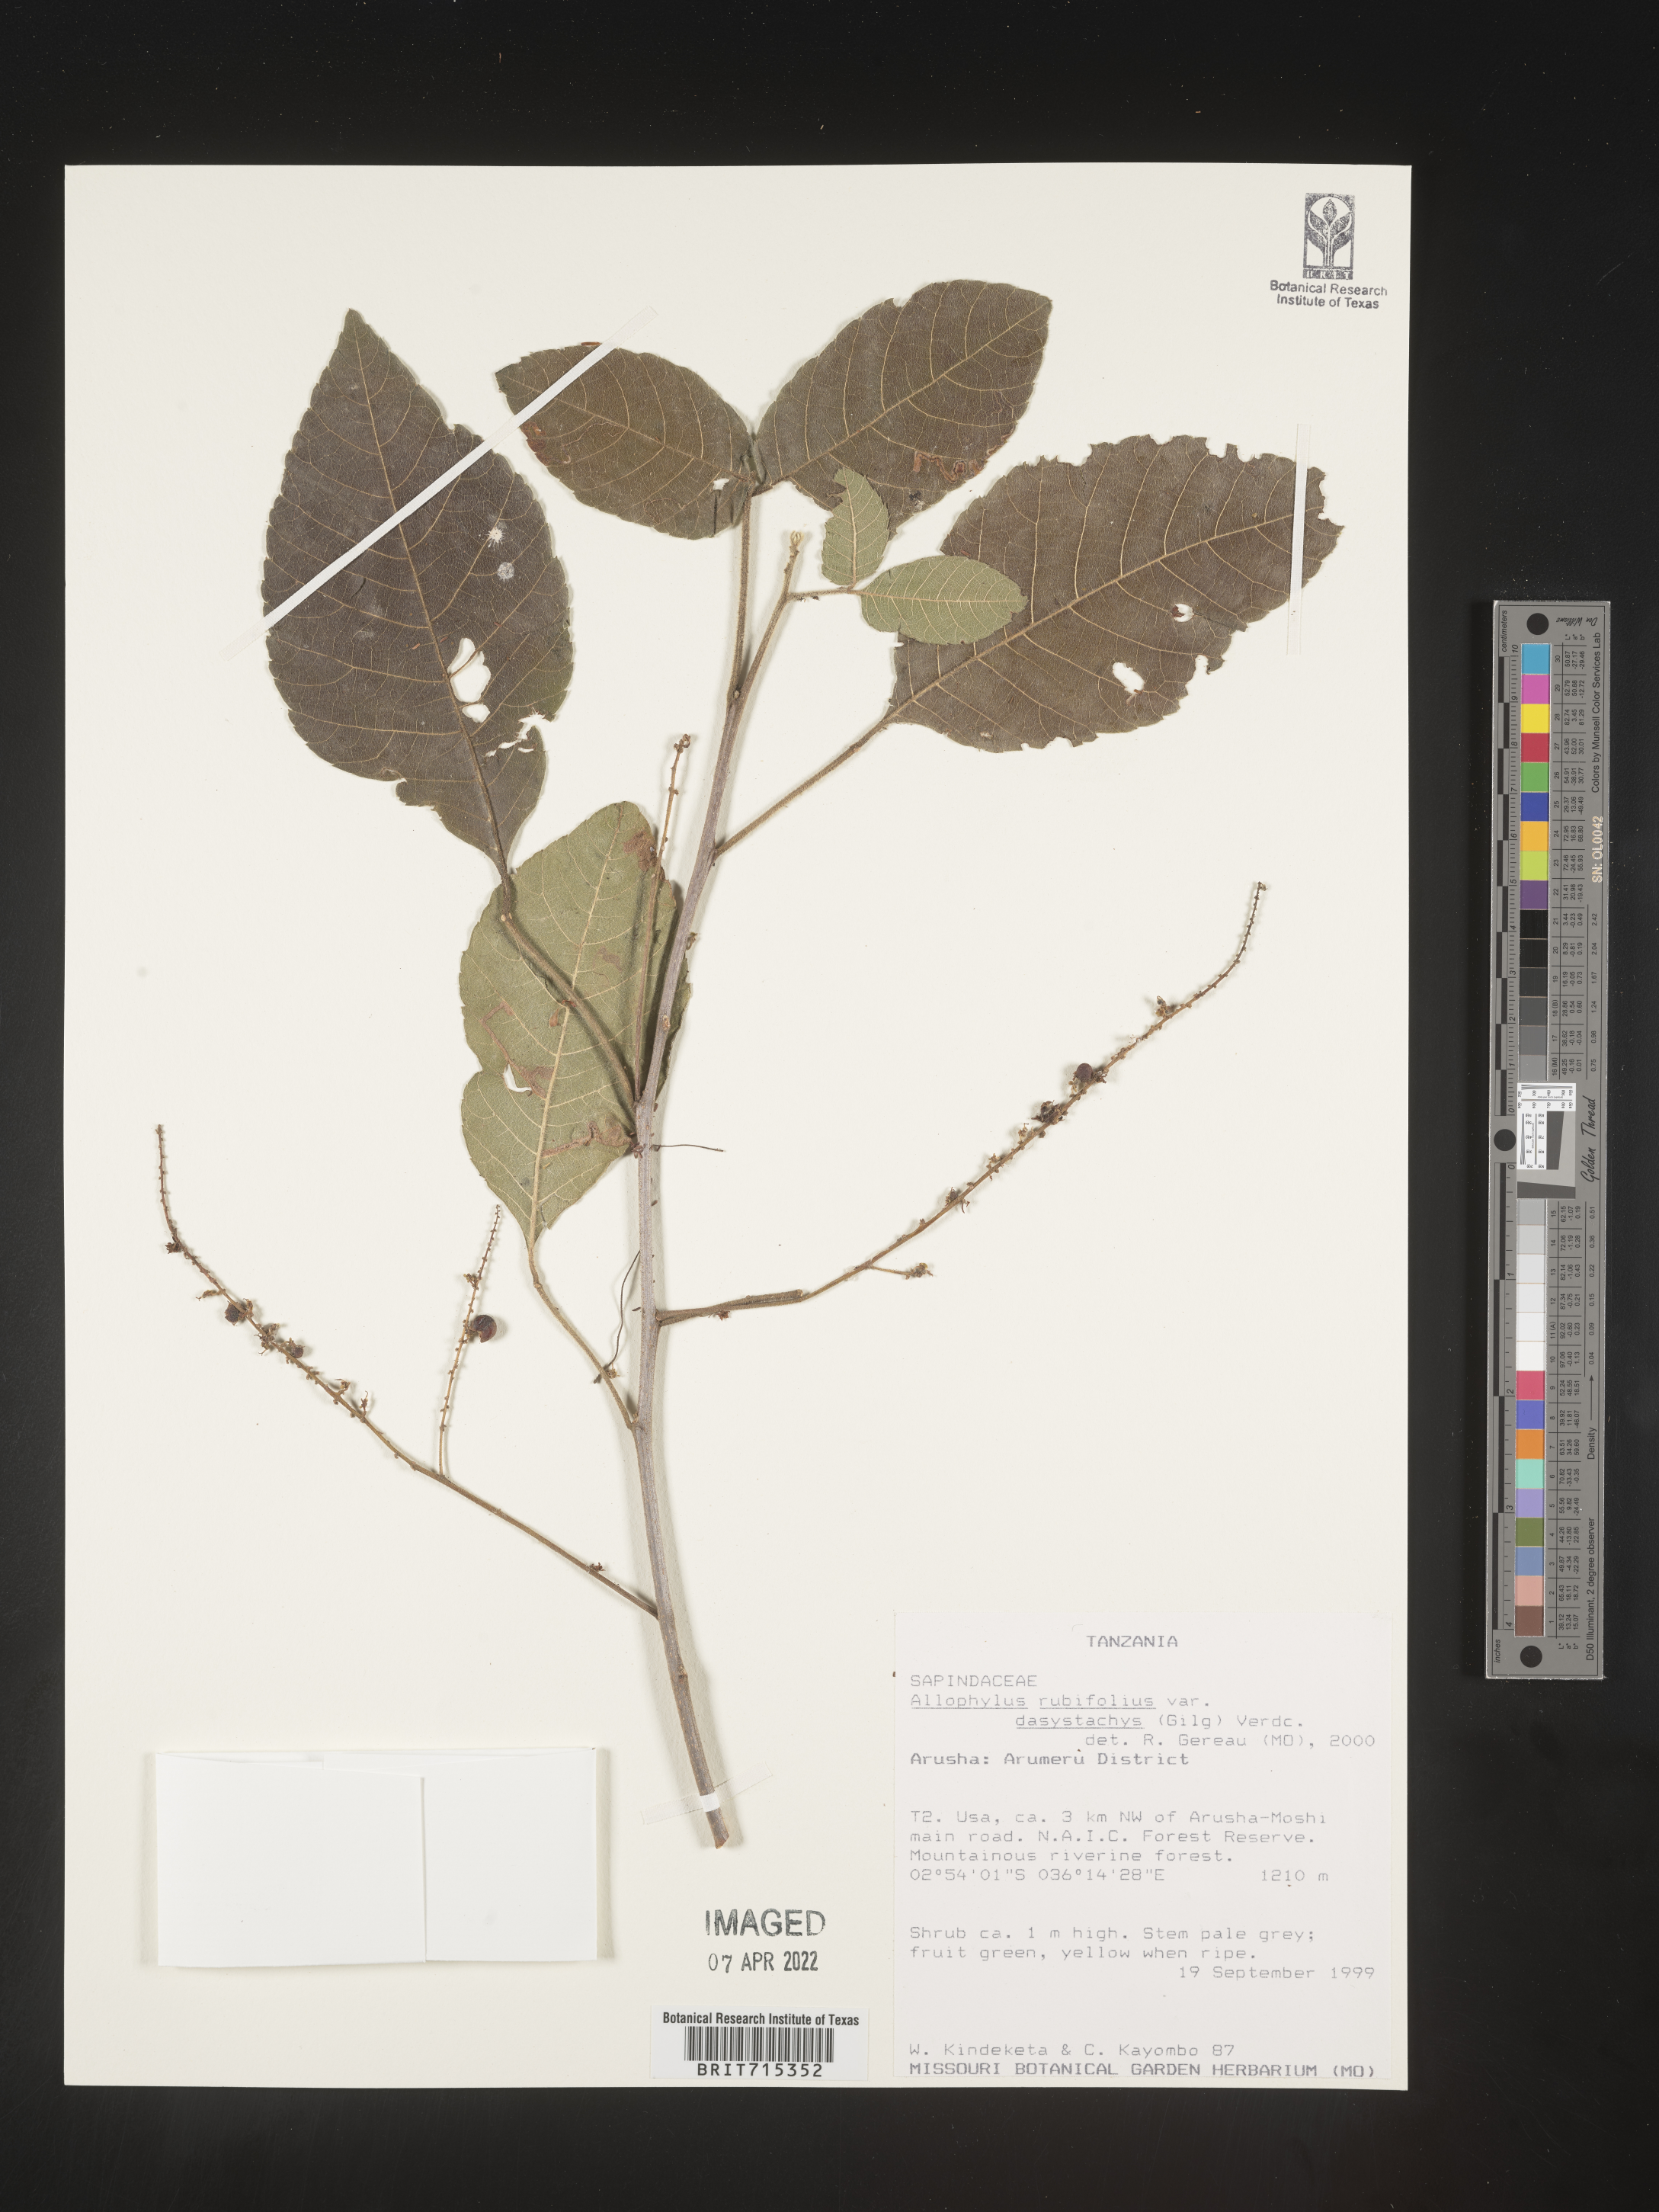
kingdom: Plantae
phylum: Tracheophyta
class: Magnoliopsida
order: Sapindales
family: Sapindaceae
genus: Allophylus
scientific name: Allophylus rubifolius
